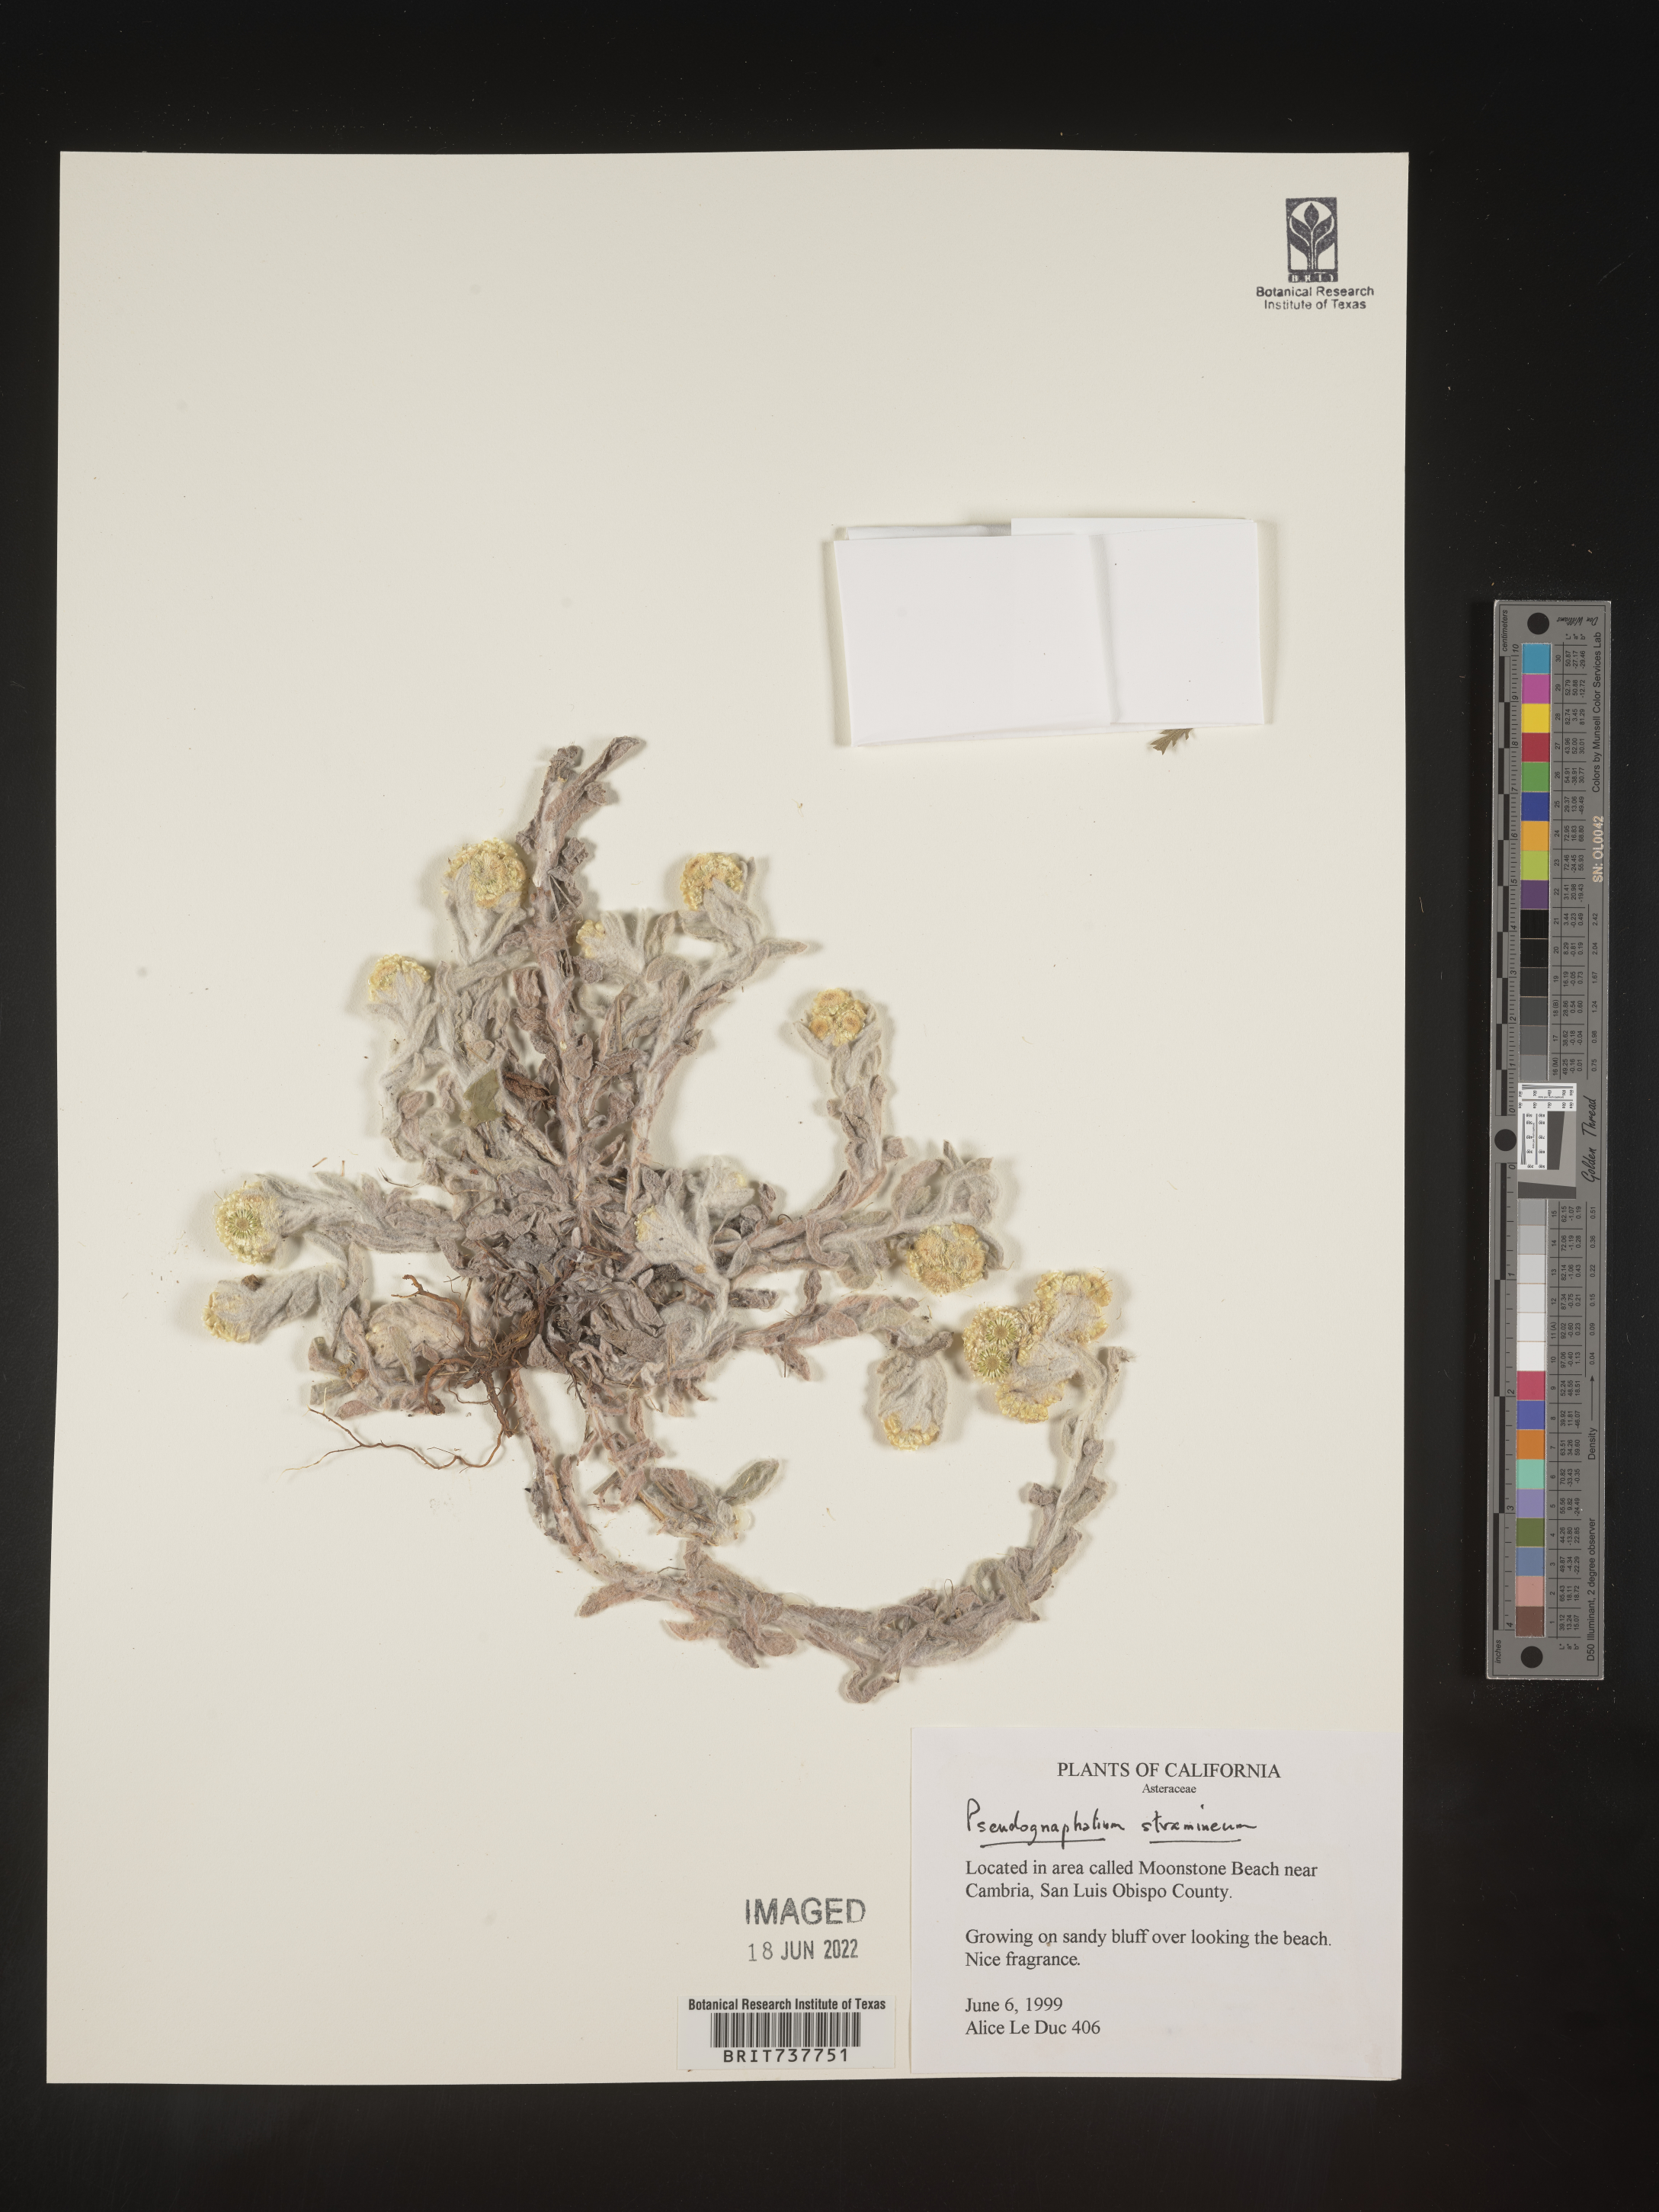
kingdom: Plantae
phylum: Tracheophyta
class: Magnoliopsida
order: Asterales
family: Asteraceae
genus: Pseudognaphalium
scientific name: Pseudognaphalium stramineum
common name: Cotton-batting-plant
